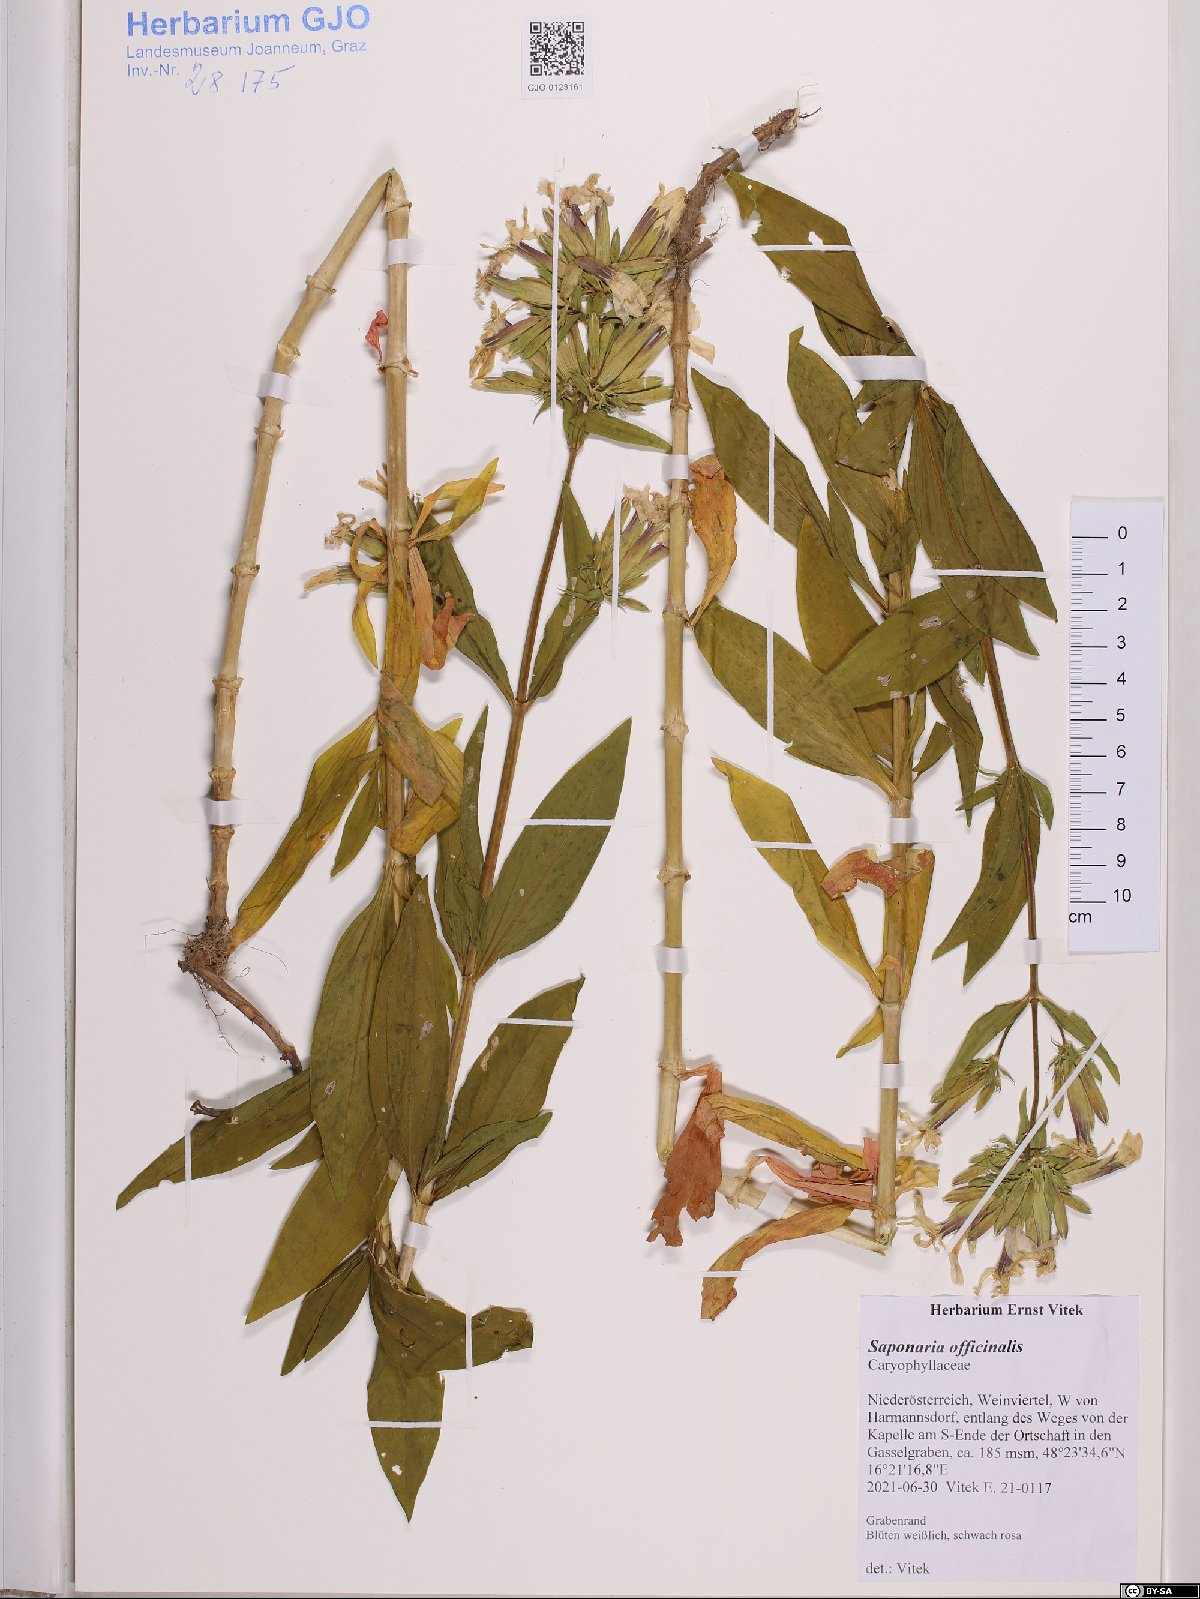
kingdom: Plantae
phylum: Tracheophyta
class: Magnoliopsida
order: Caryophyllales
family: Caryophyllaceae
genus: Saponaria
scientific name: Saponaria officinalis
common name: Soapwort
